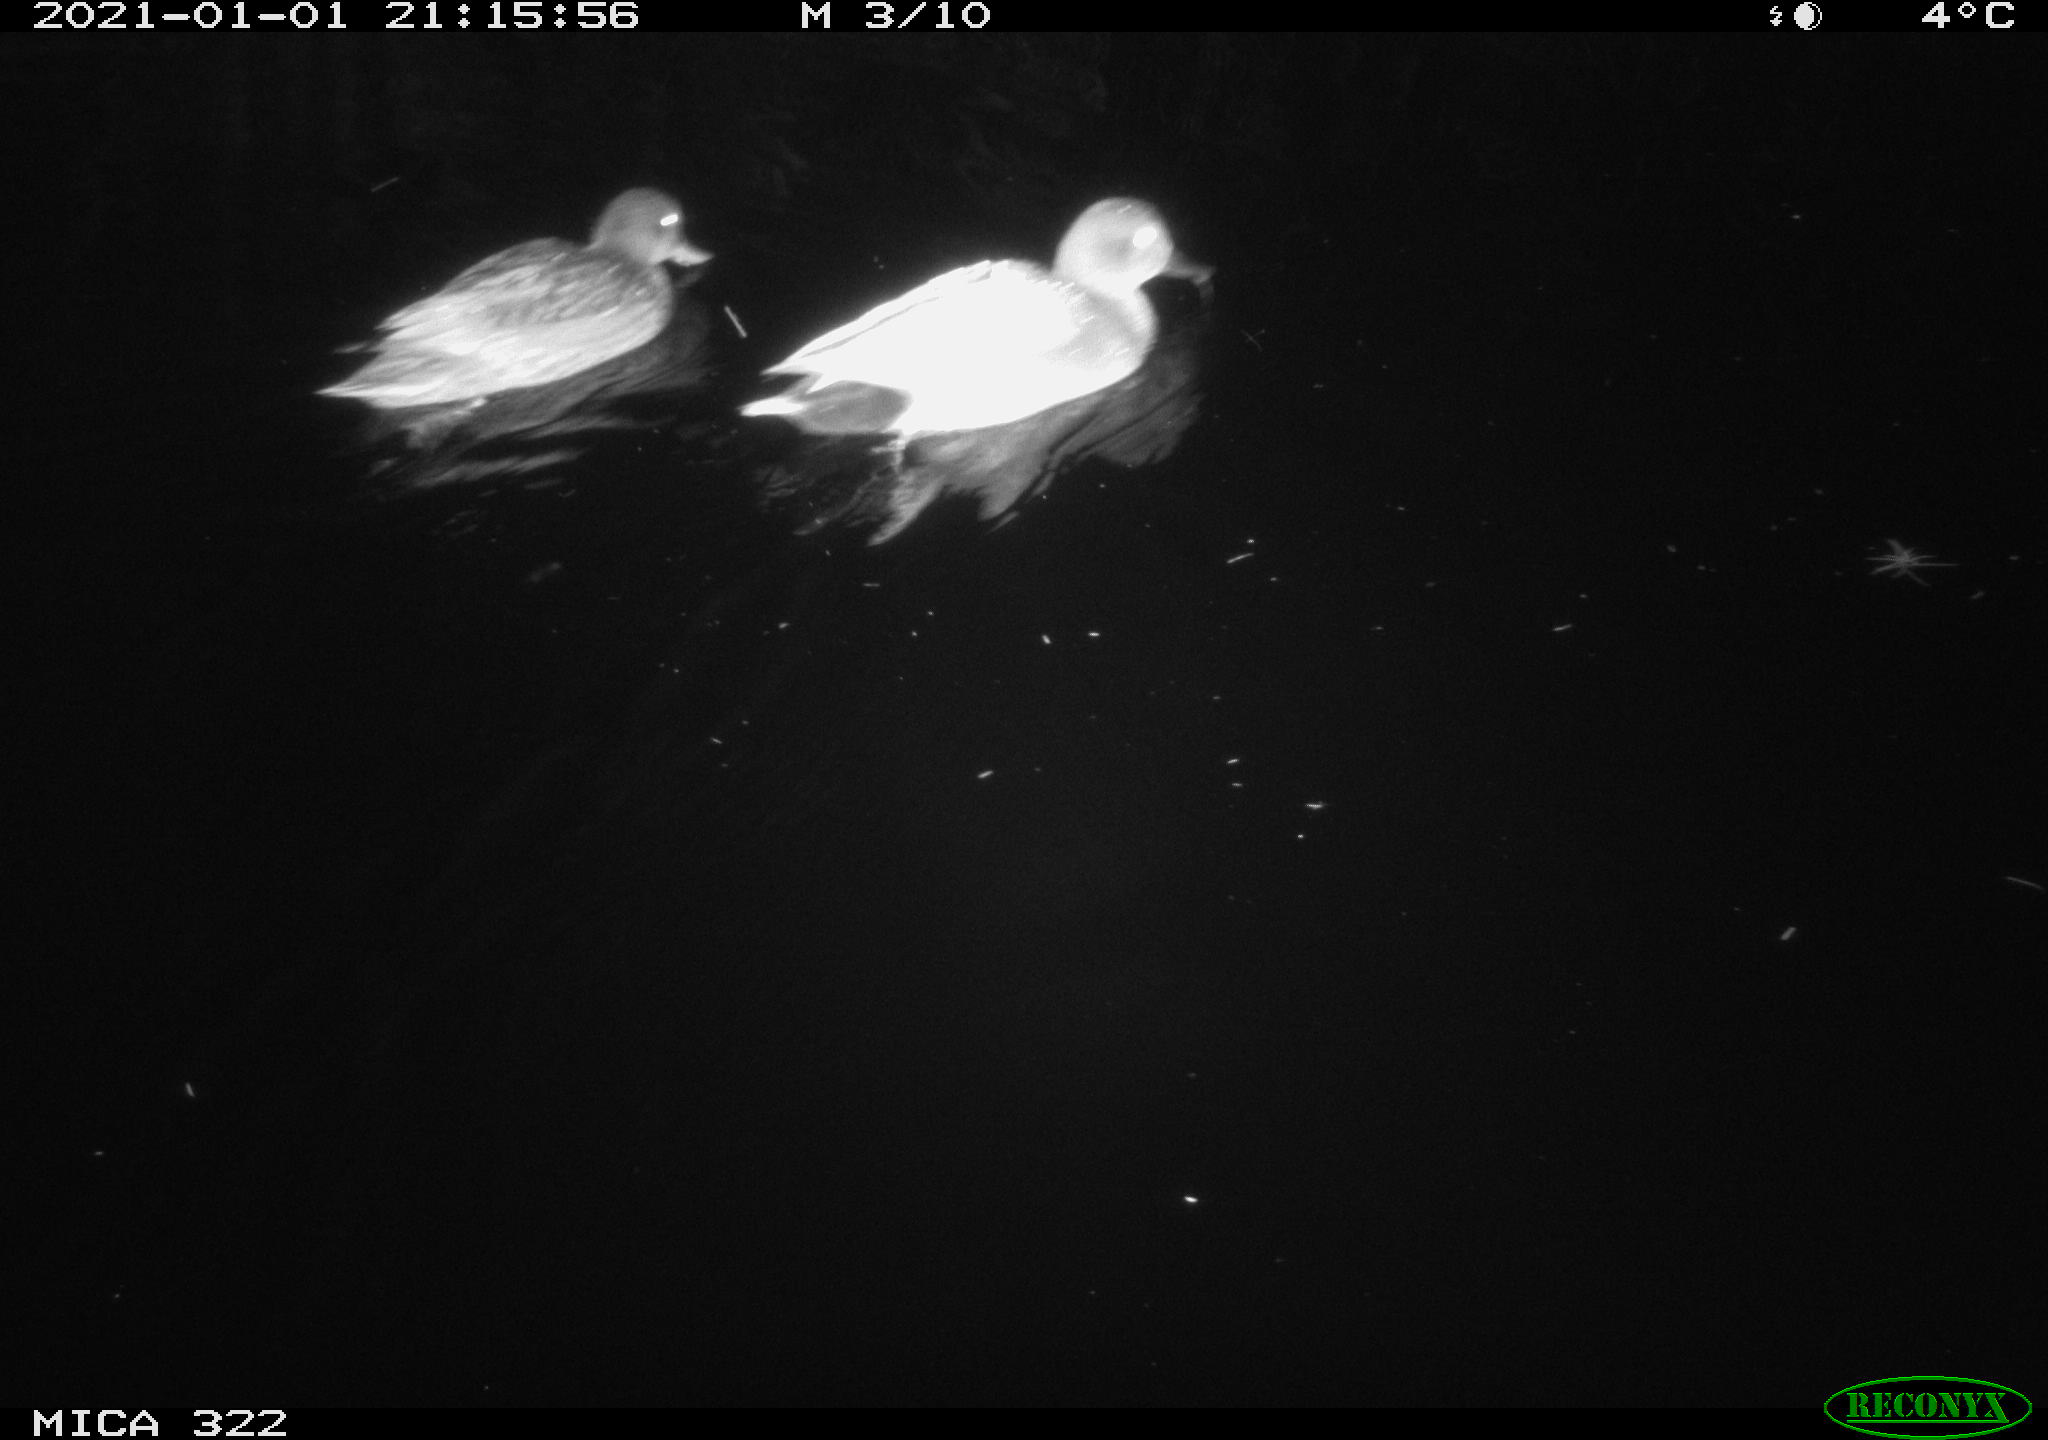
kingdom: Animalia
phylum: Chordata
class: Aves
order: Anseriformes
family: Anatidae
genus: Mareca
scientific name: Mareca strepera
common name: Gadwall
